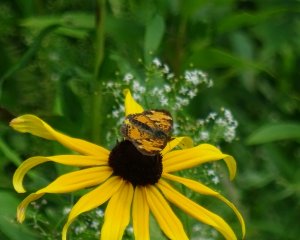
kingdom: Animalia
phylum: Arthropoda
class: Insecta
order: Lepidoptera
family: Nymphalidae
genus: Phyciodes
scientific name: Phyciodes tharos
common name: Northern Crescent
